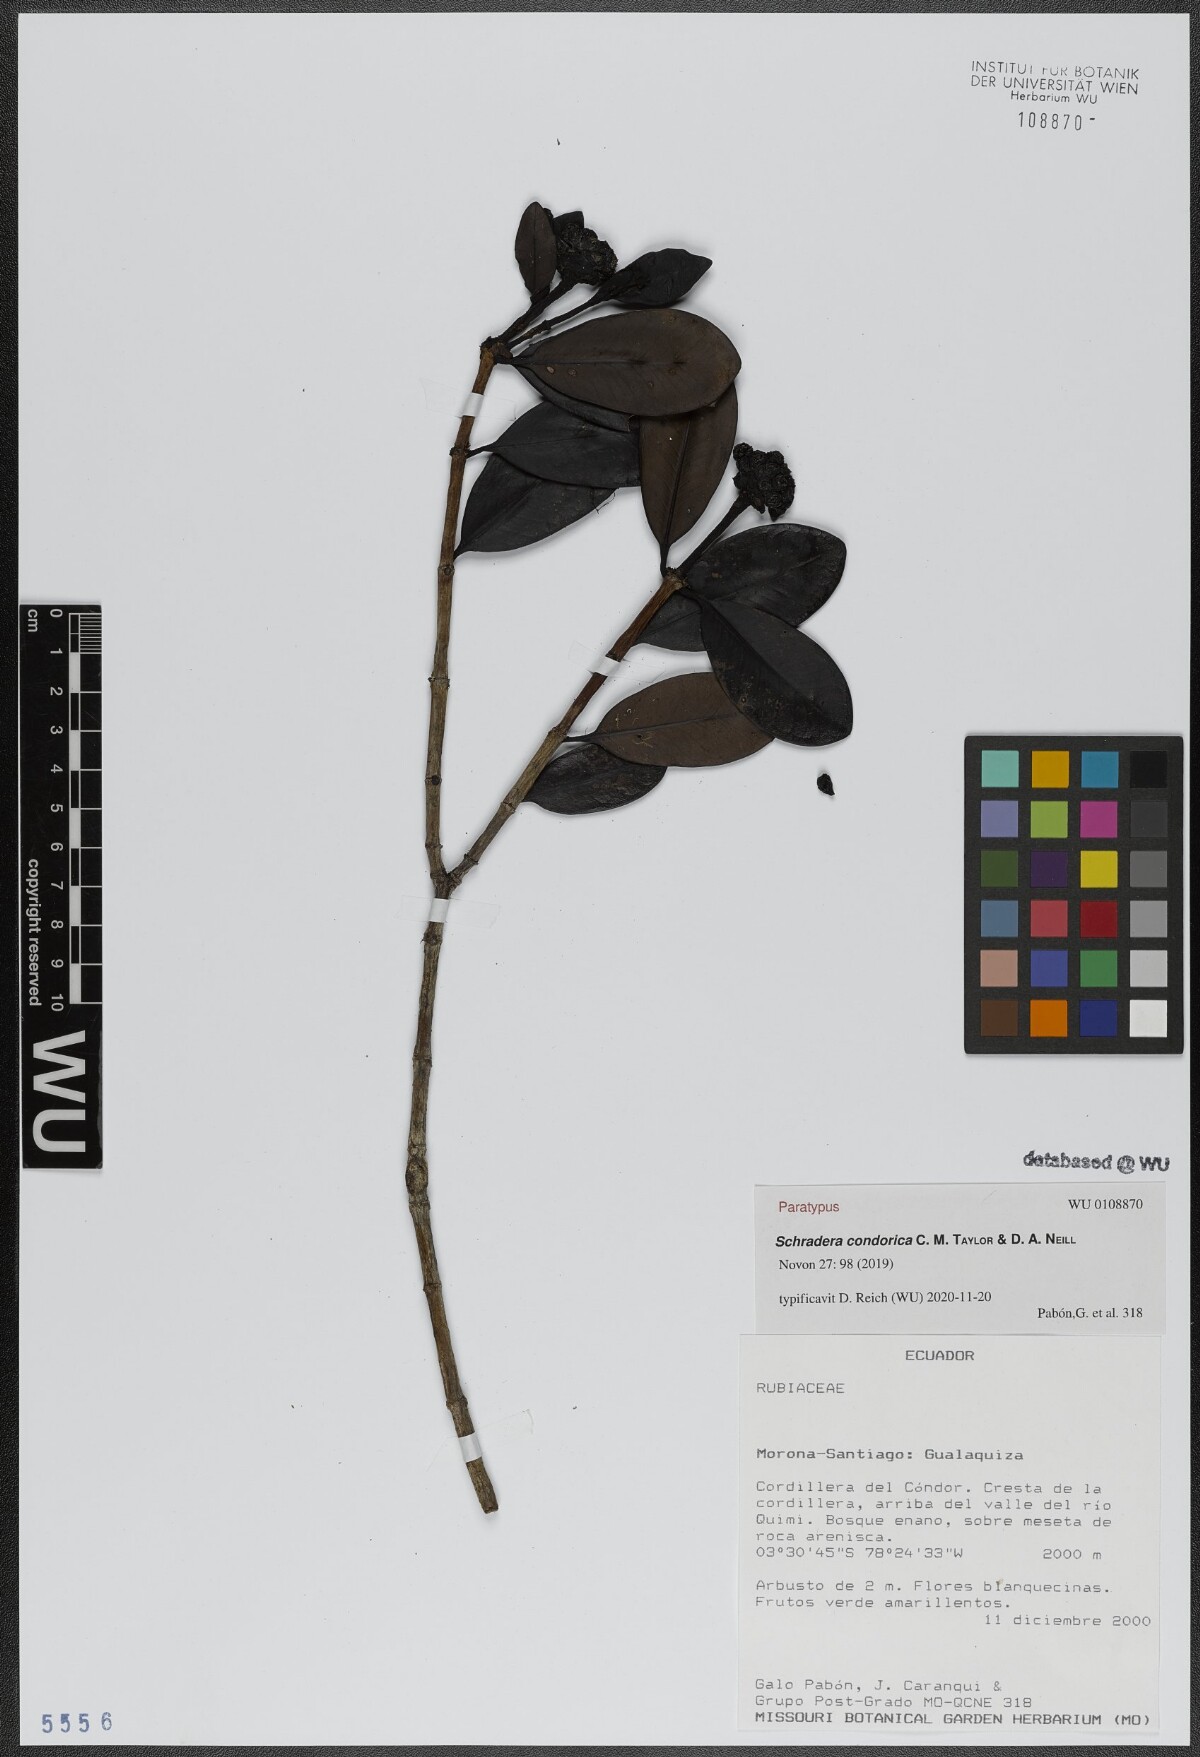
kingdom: Plantae
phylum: Tracheophyta
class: Magnoliopsida
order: Gentianales
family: Rubiaceae
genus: Schradera
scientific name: Schradera condorica
